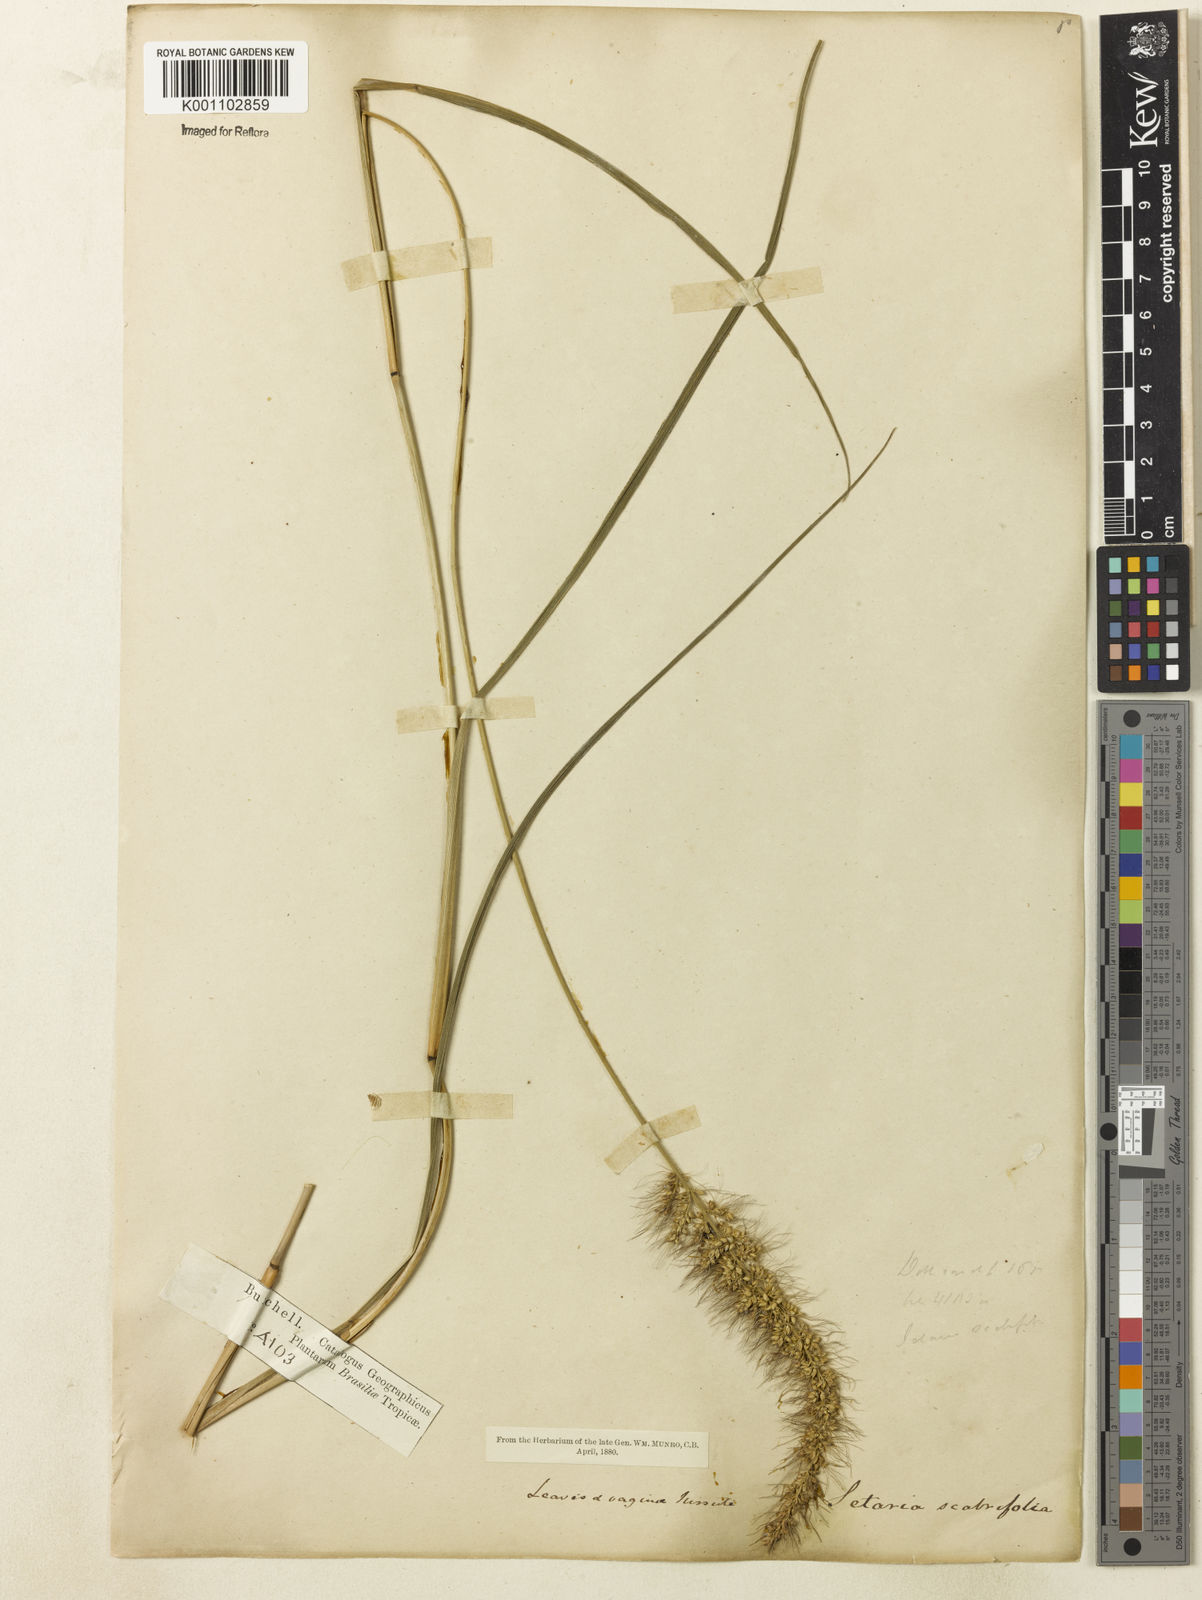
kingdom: Plantae
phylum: Tracheophyta
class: Liliopsida
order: Poales
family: Poaceae
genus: Setaria
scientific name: Setaria scabrifolia
